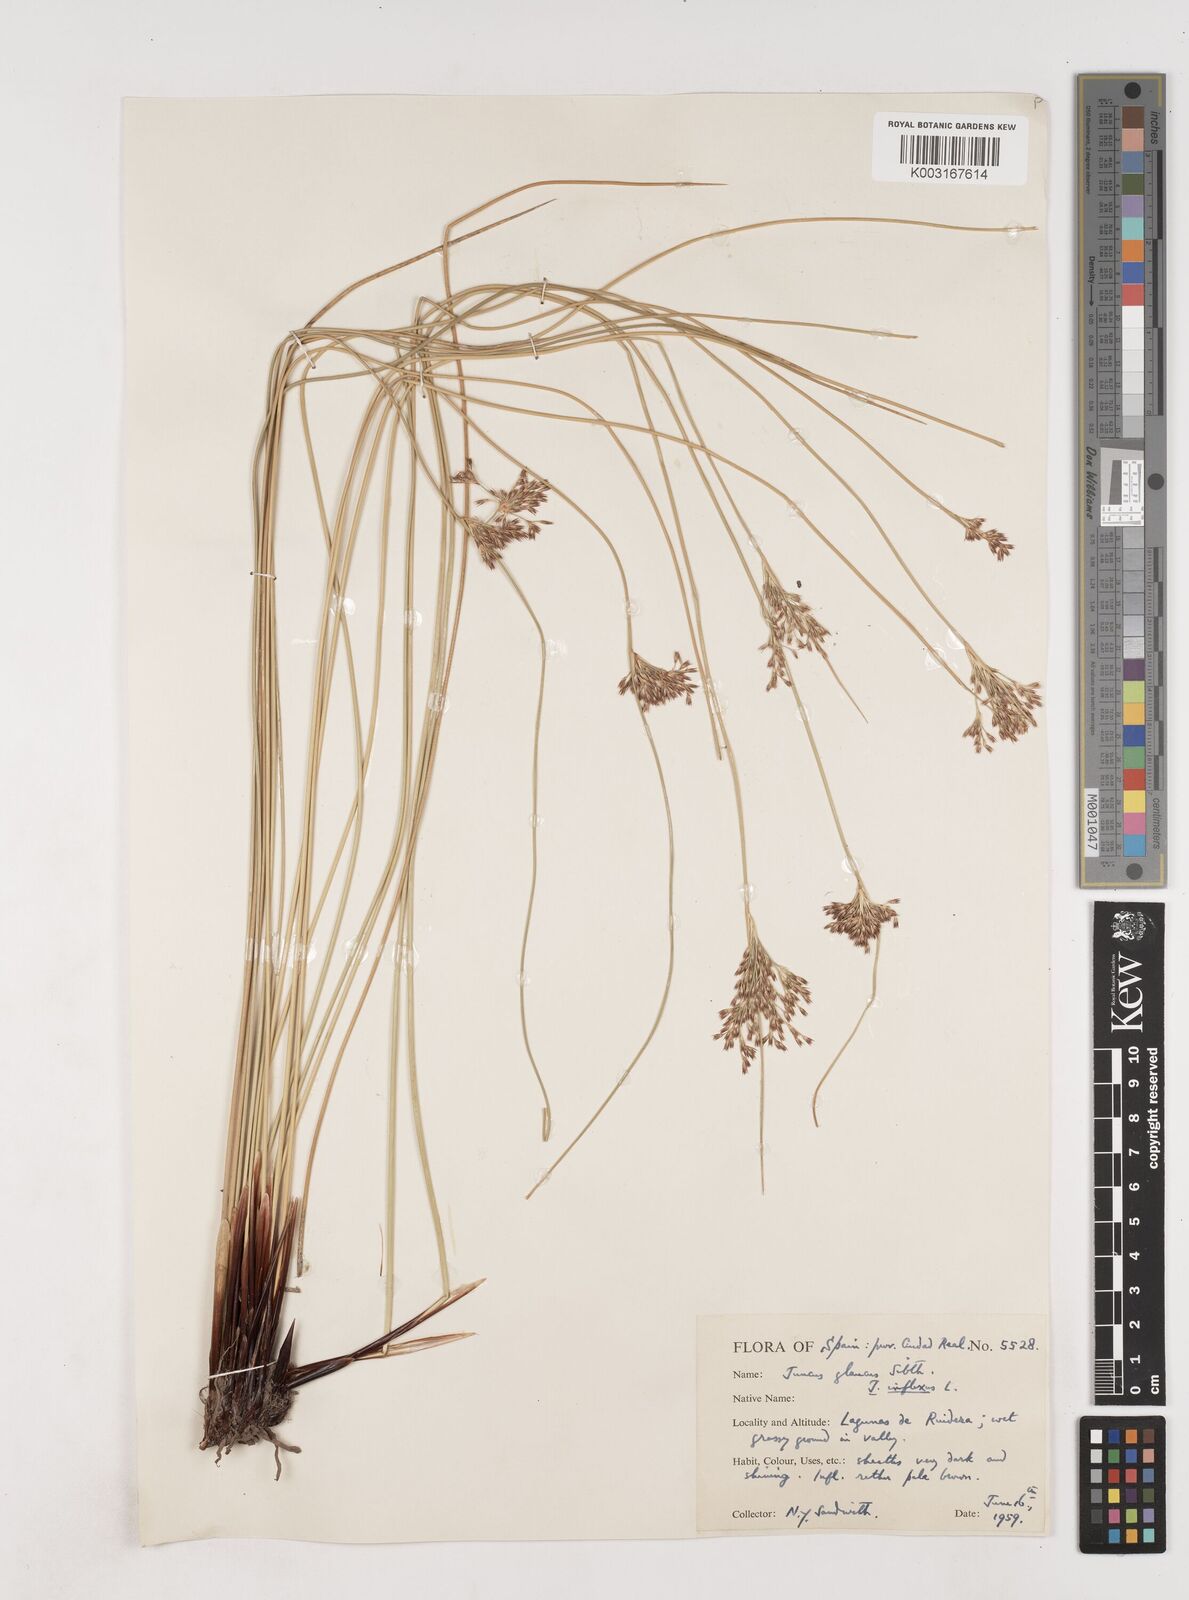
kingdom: Plantae
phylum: Tracheophyta
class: Liliopsida
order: Poales
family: Juncaceae
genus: Juncus
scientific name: Juncus inflexus
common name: Hard rush
